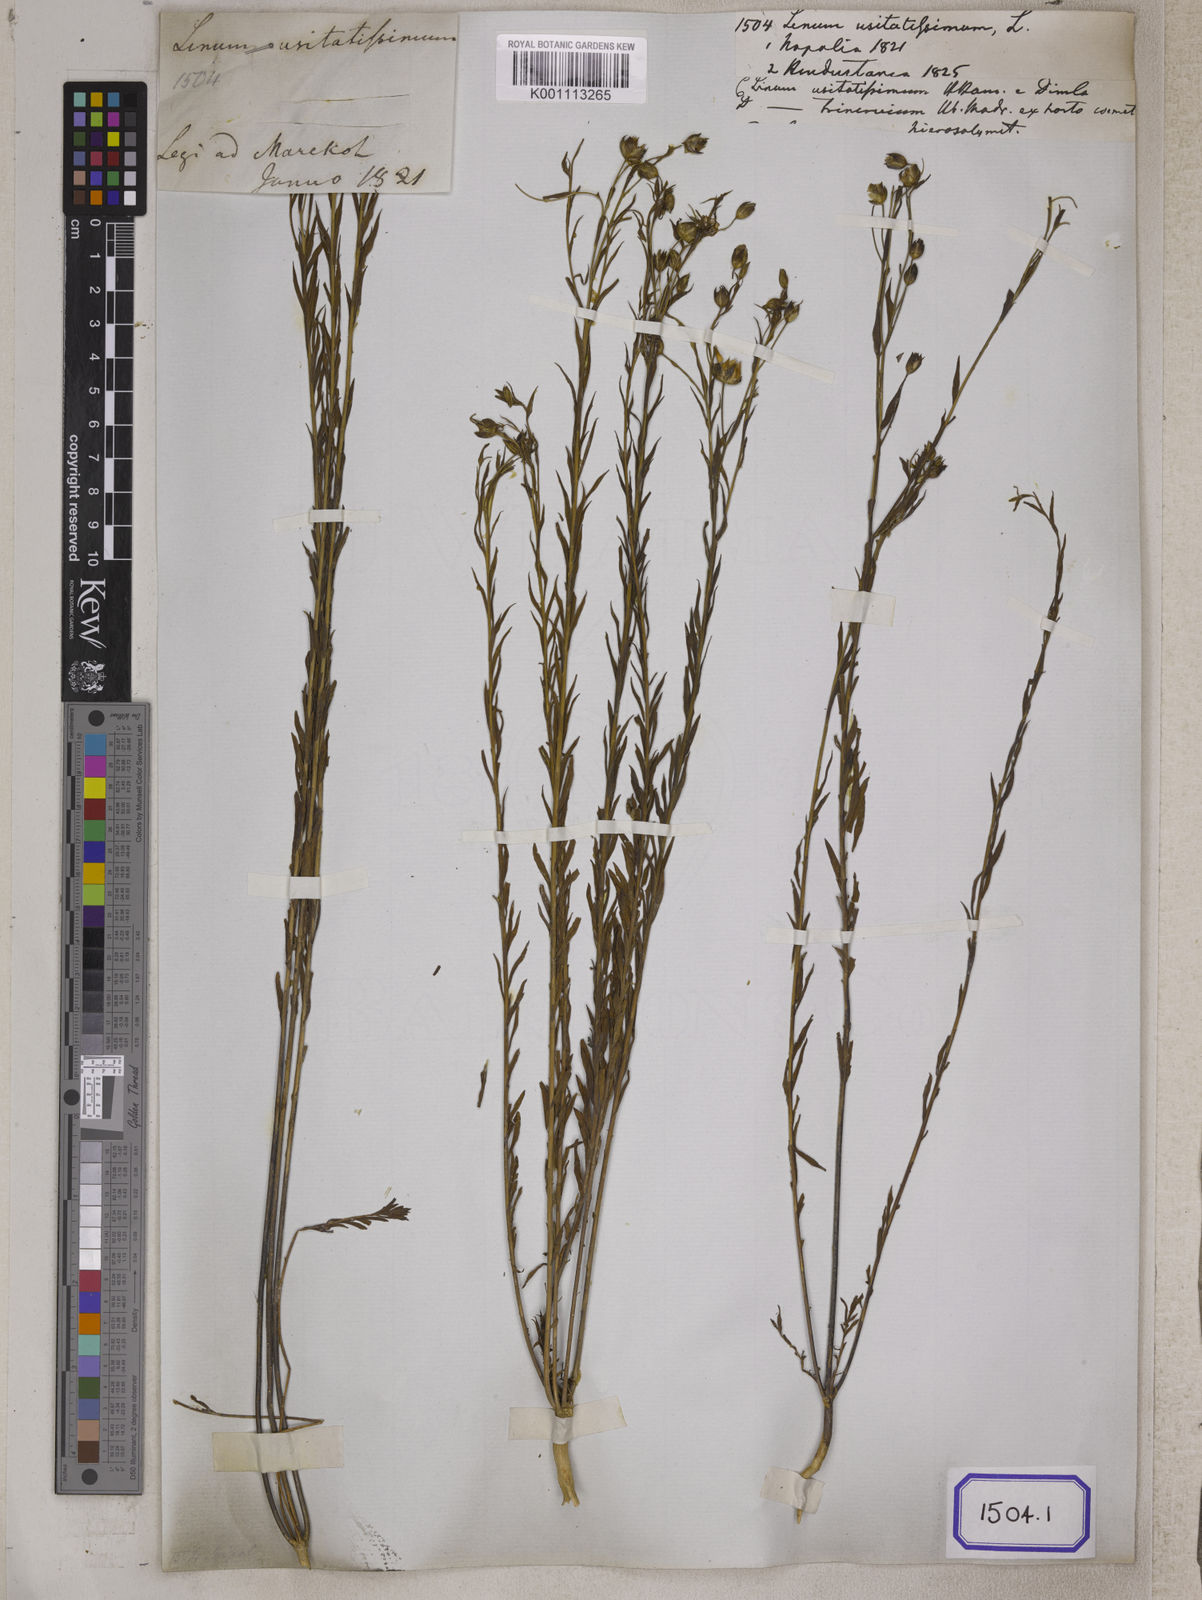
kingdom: Plantae
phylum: Tracheophyta
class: Magnoliopsida
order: Malpighiales
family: Linaceae
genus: Linum
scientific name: Linum usitatissimum
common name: Flax
